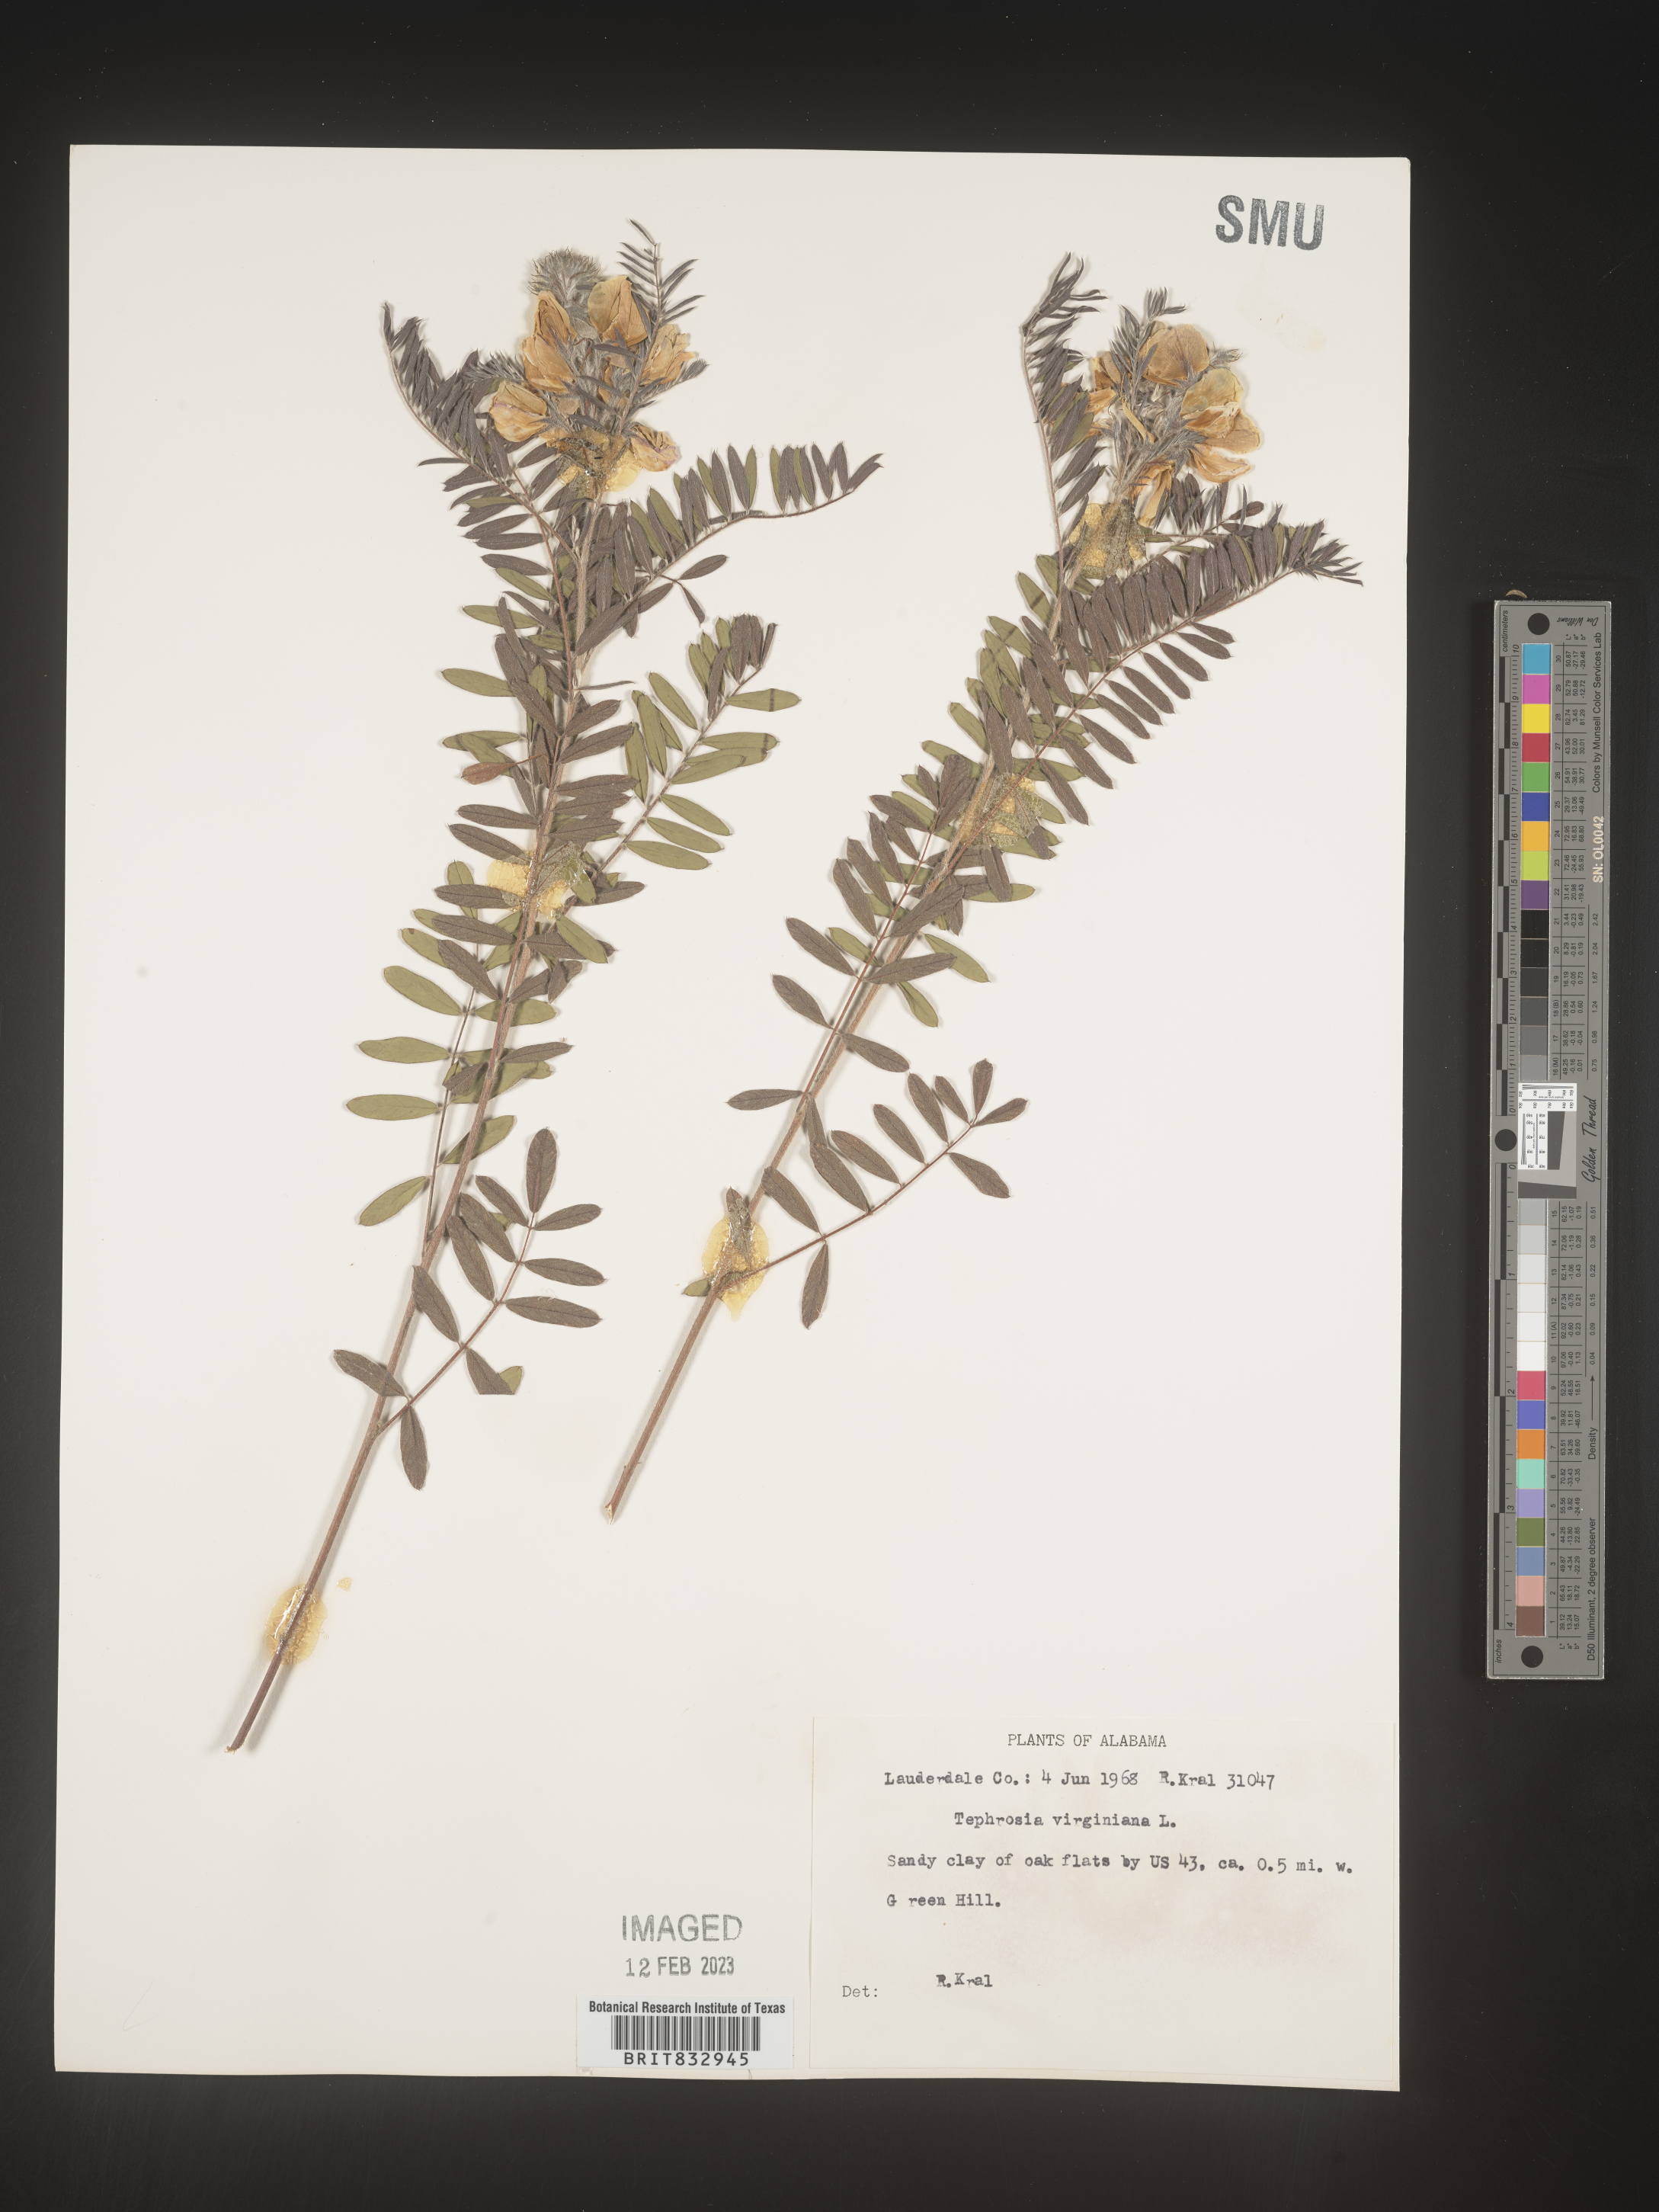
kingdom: Plantae
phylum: Tracheophyta
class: Magnoliopsida
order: Fabales
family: Fabaceae
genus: Tephrosia
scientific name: Tephrosia virginiana
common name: Rabbit-pea
